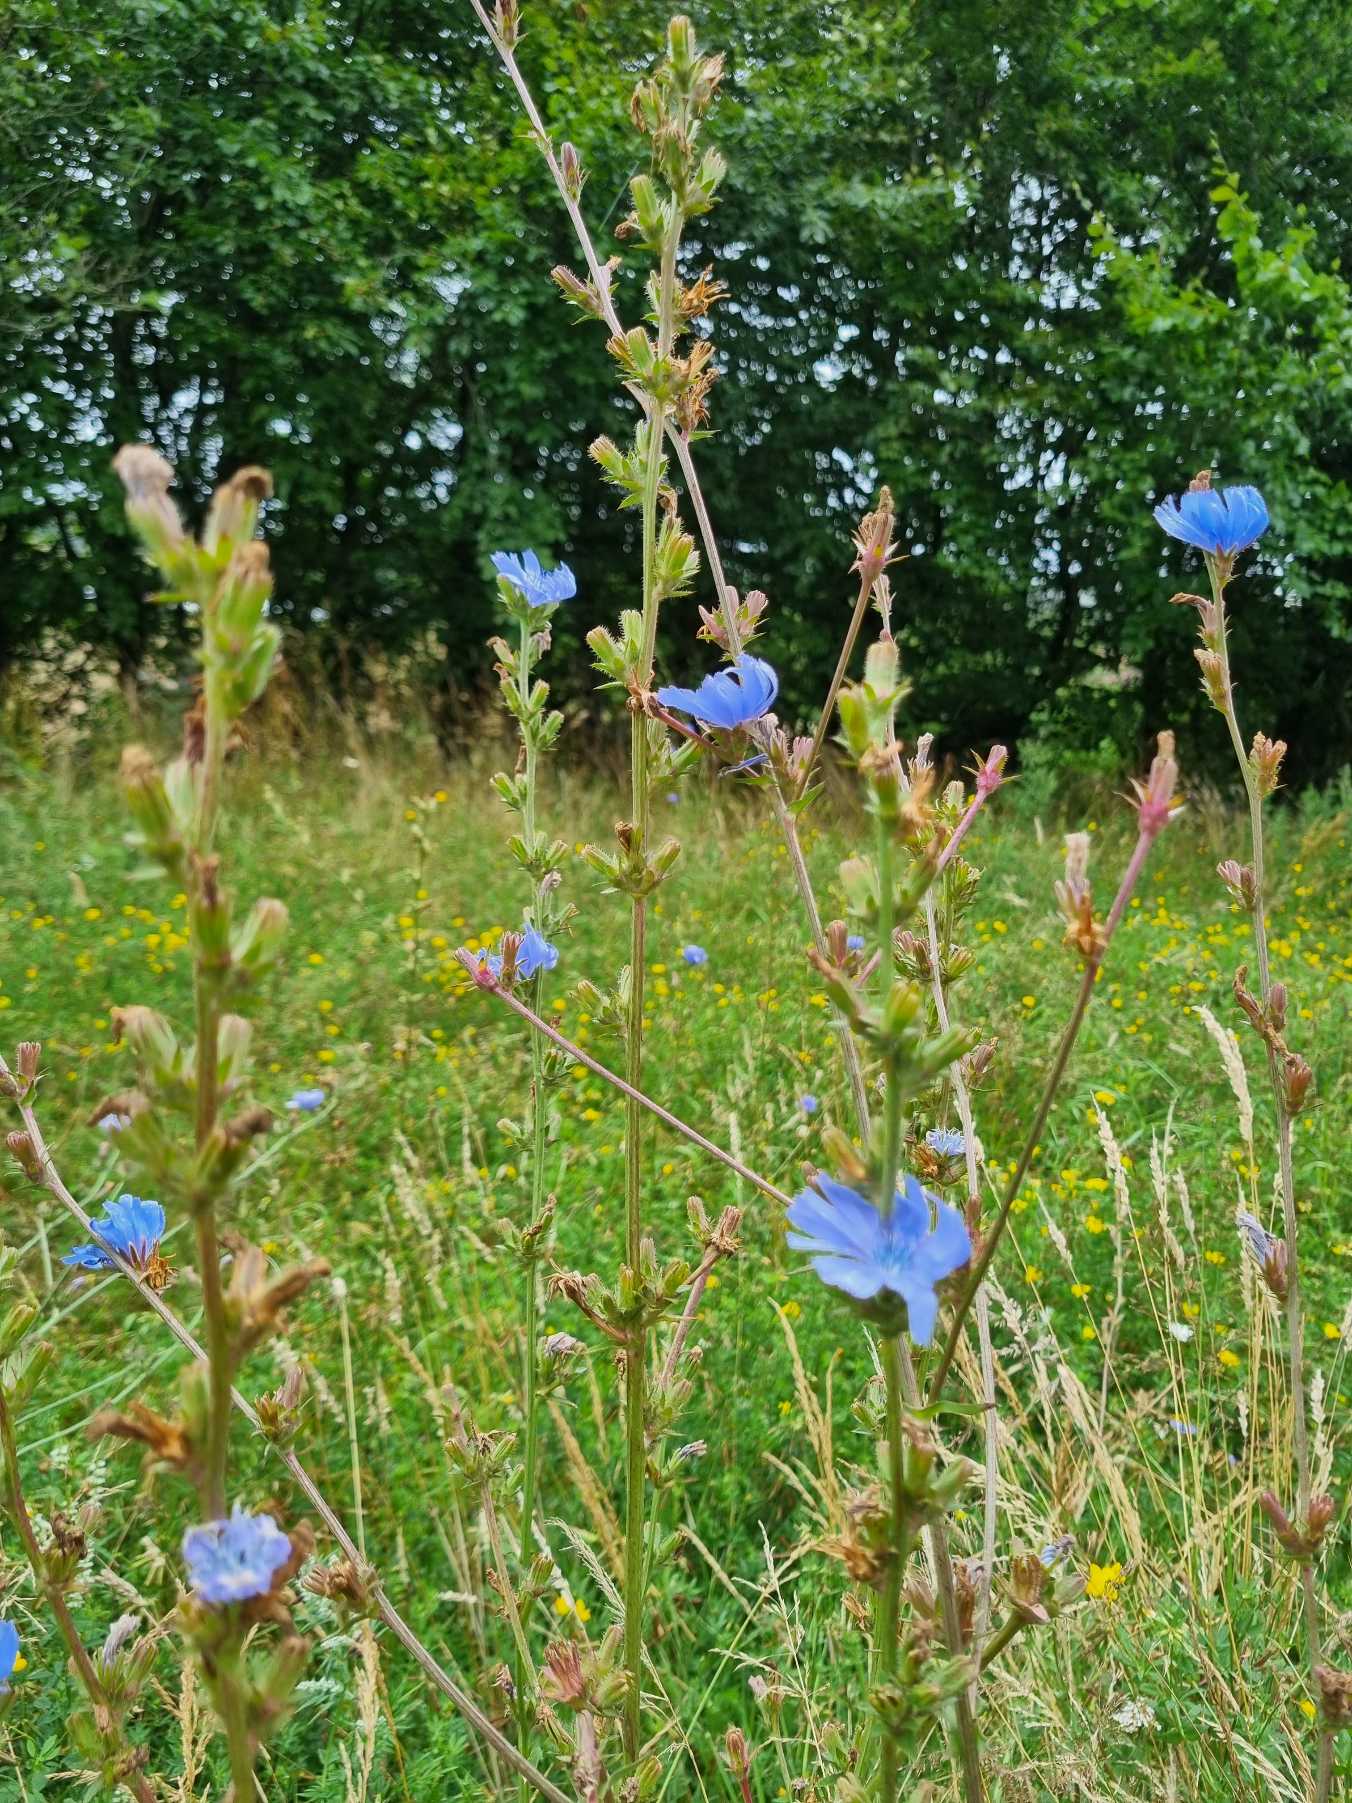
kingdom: Plantae
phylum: Tracheophyta
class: Magnoliopsida
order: Asterales
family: Asteraceae
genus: Cichorium
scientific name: Cichorium intybus
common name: Cikorie
